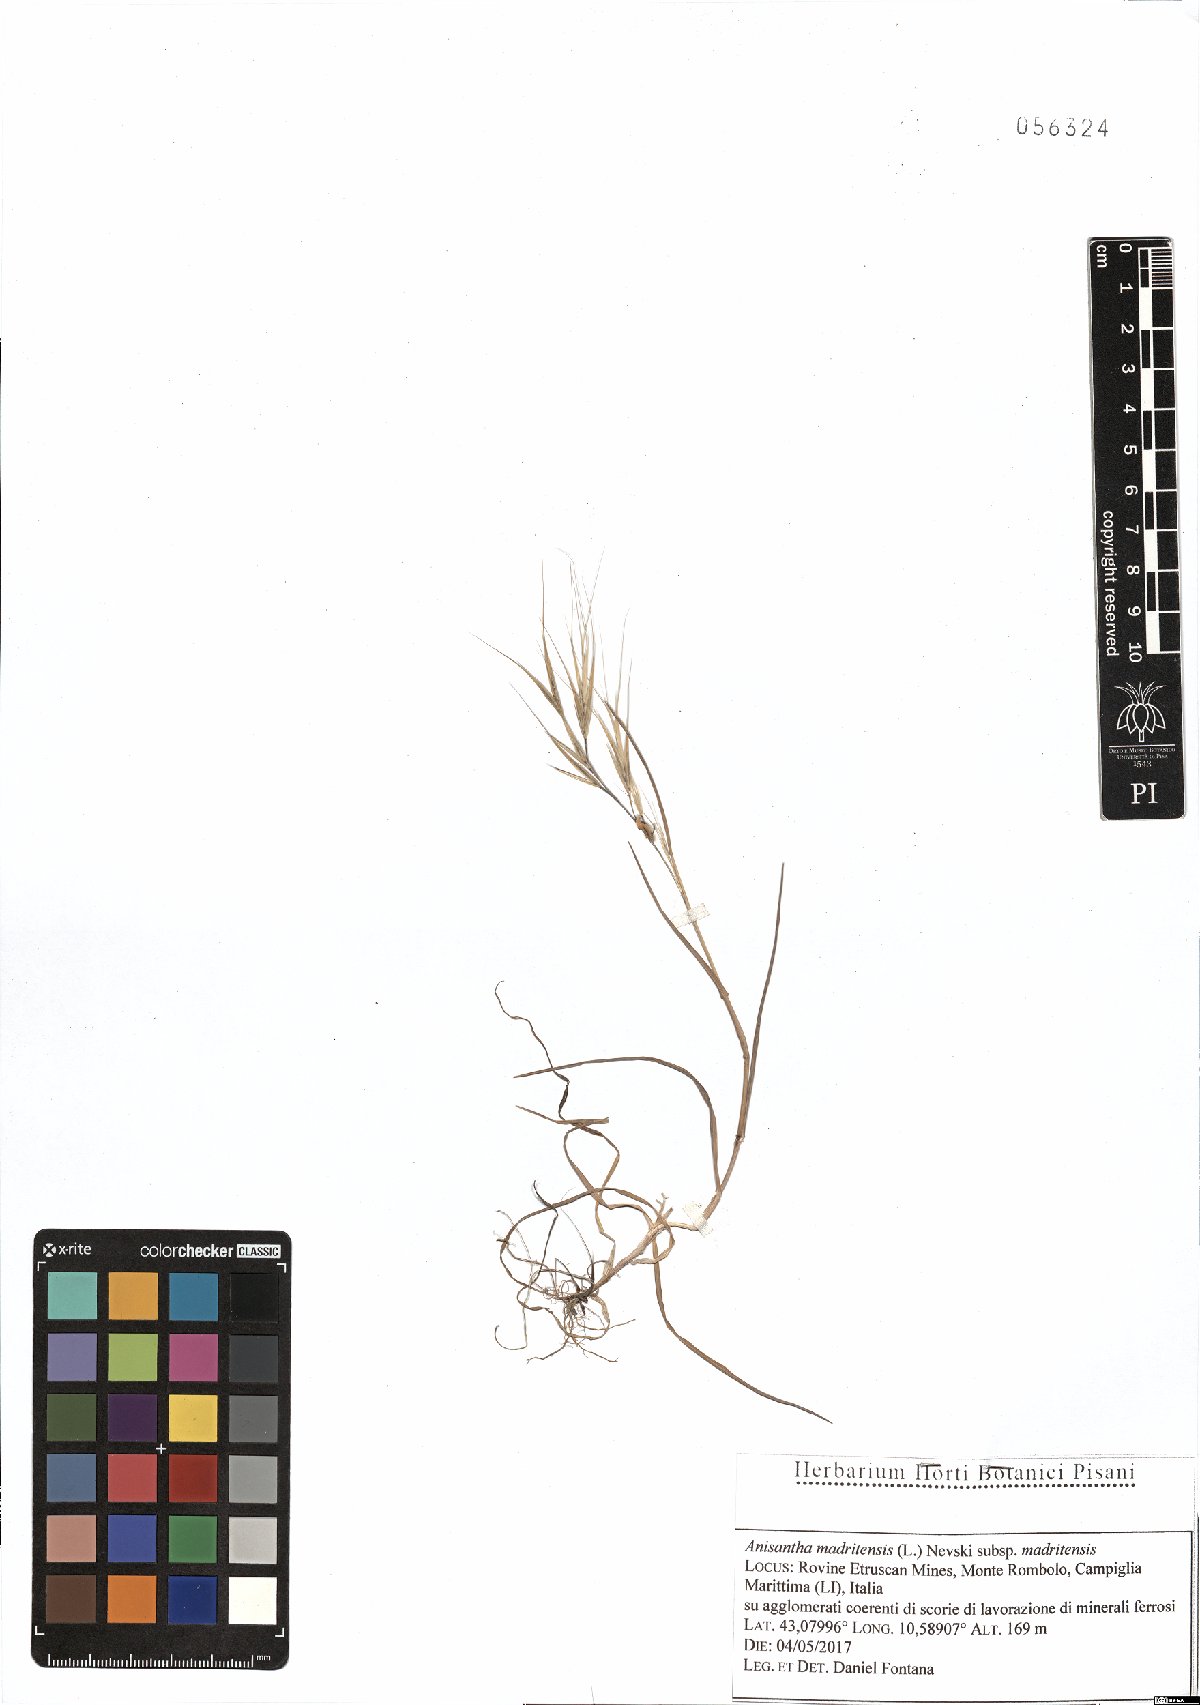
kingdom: Plantae
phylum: Tracheophyta
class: Liliopsida
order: Poales
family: Poaceae
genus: Bromus
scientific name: Bromus madritensis
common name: Compact brome
